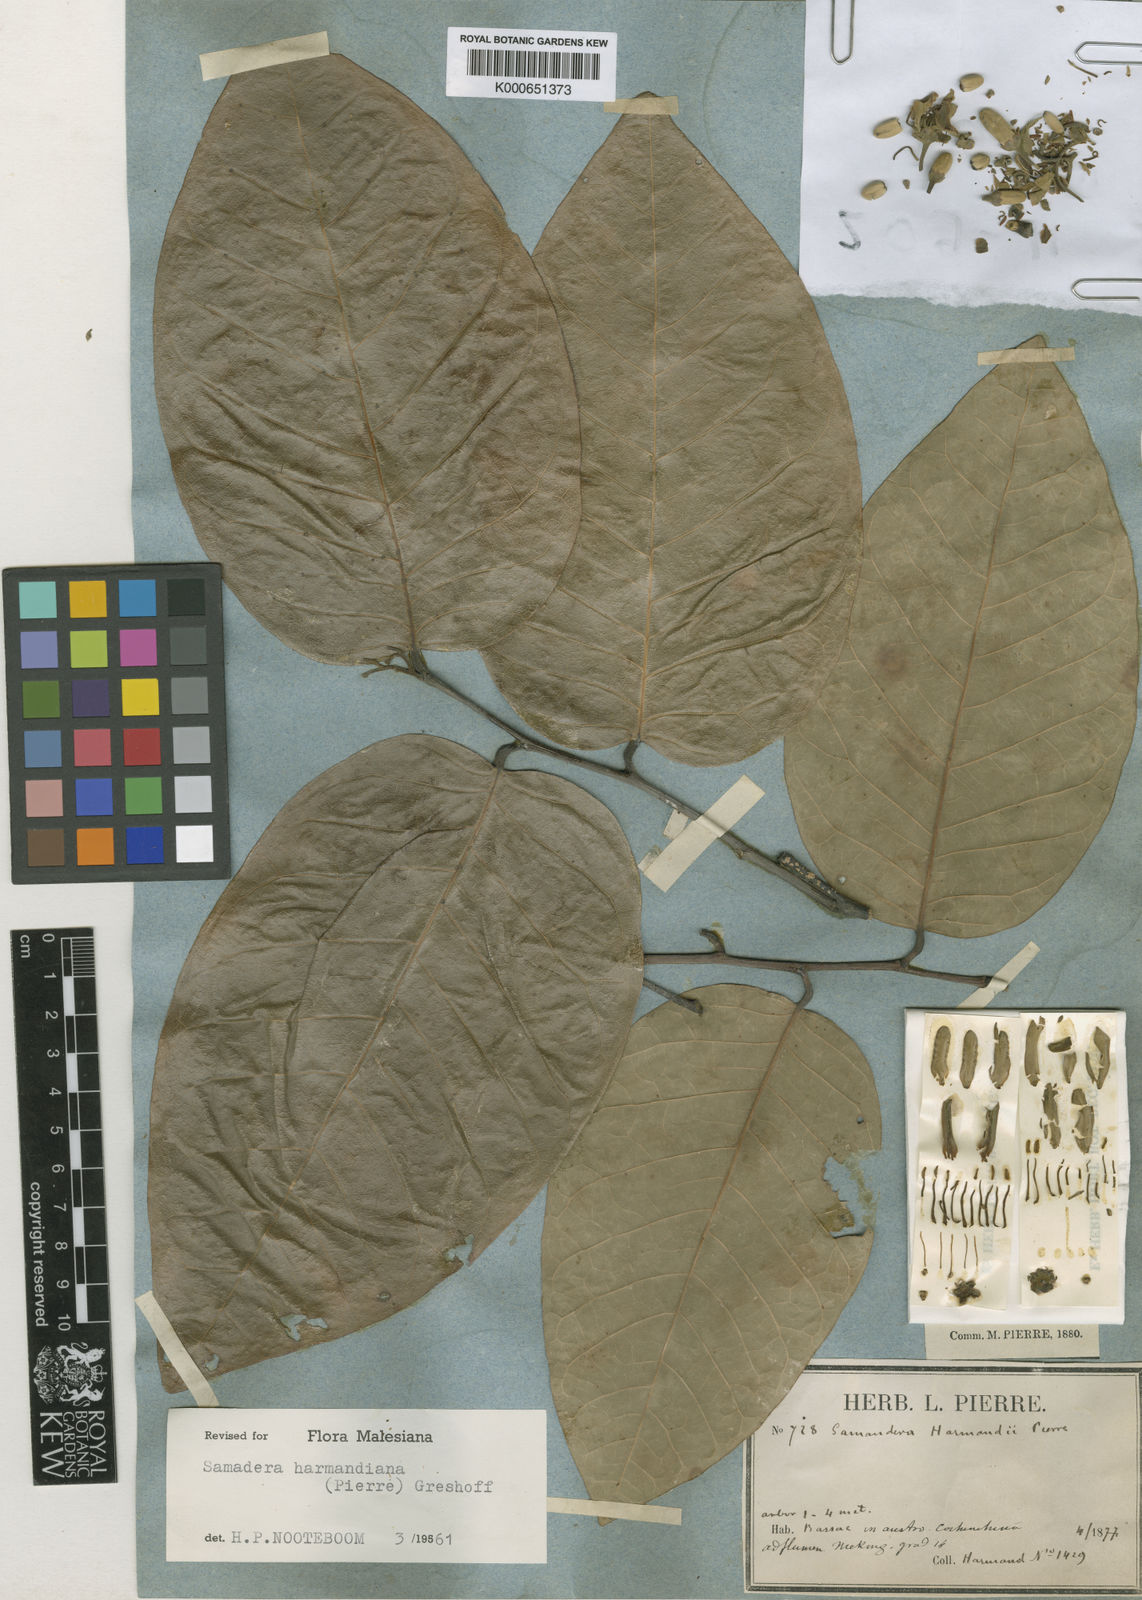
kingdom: Plantae
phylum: Tracheophyta
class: Magnoliopsida
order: Sapindales
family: Simaroubaceae
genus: Samadera
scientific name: Samadera harmandiana
